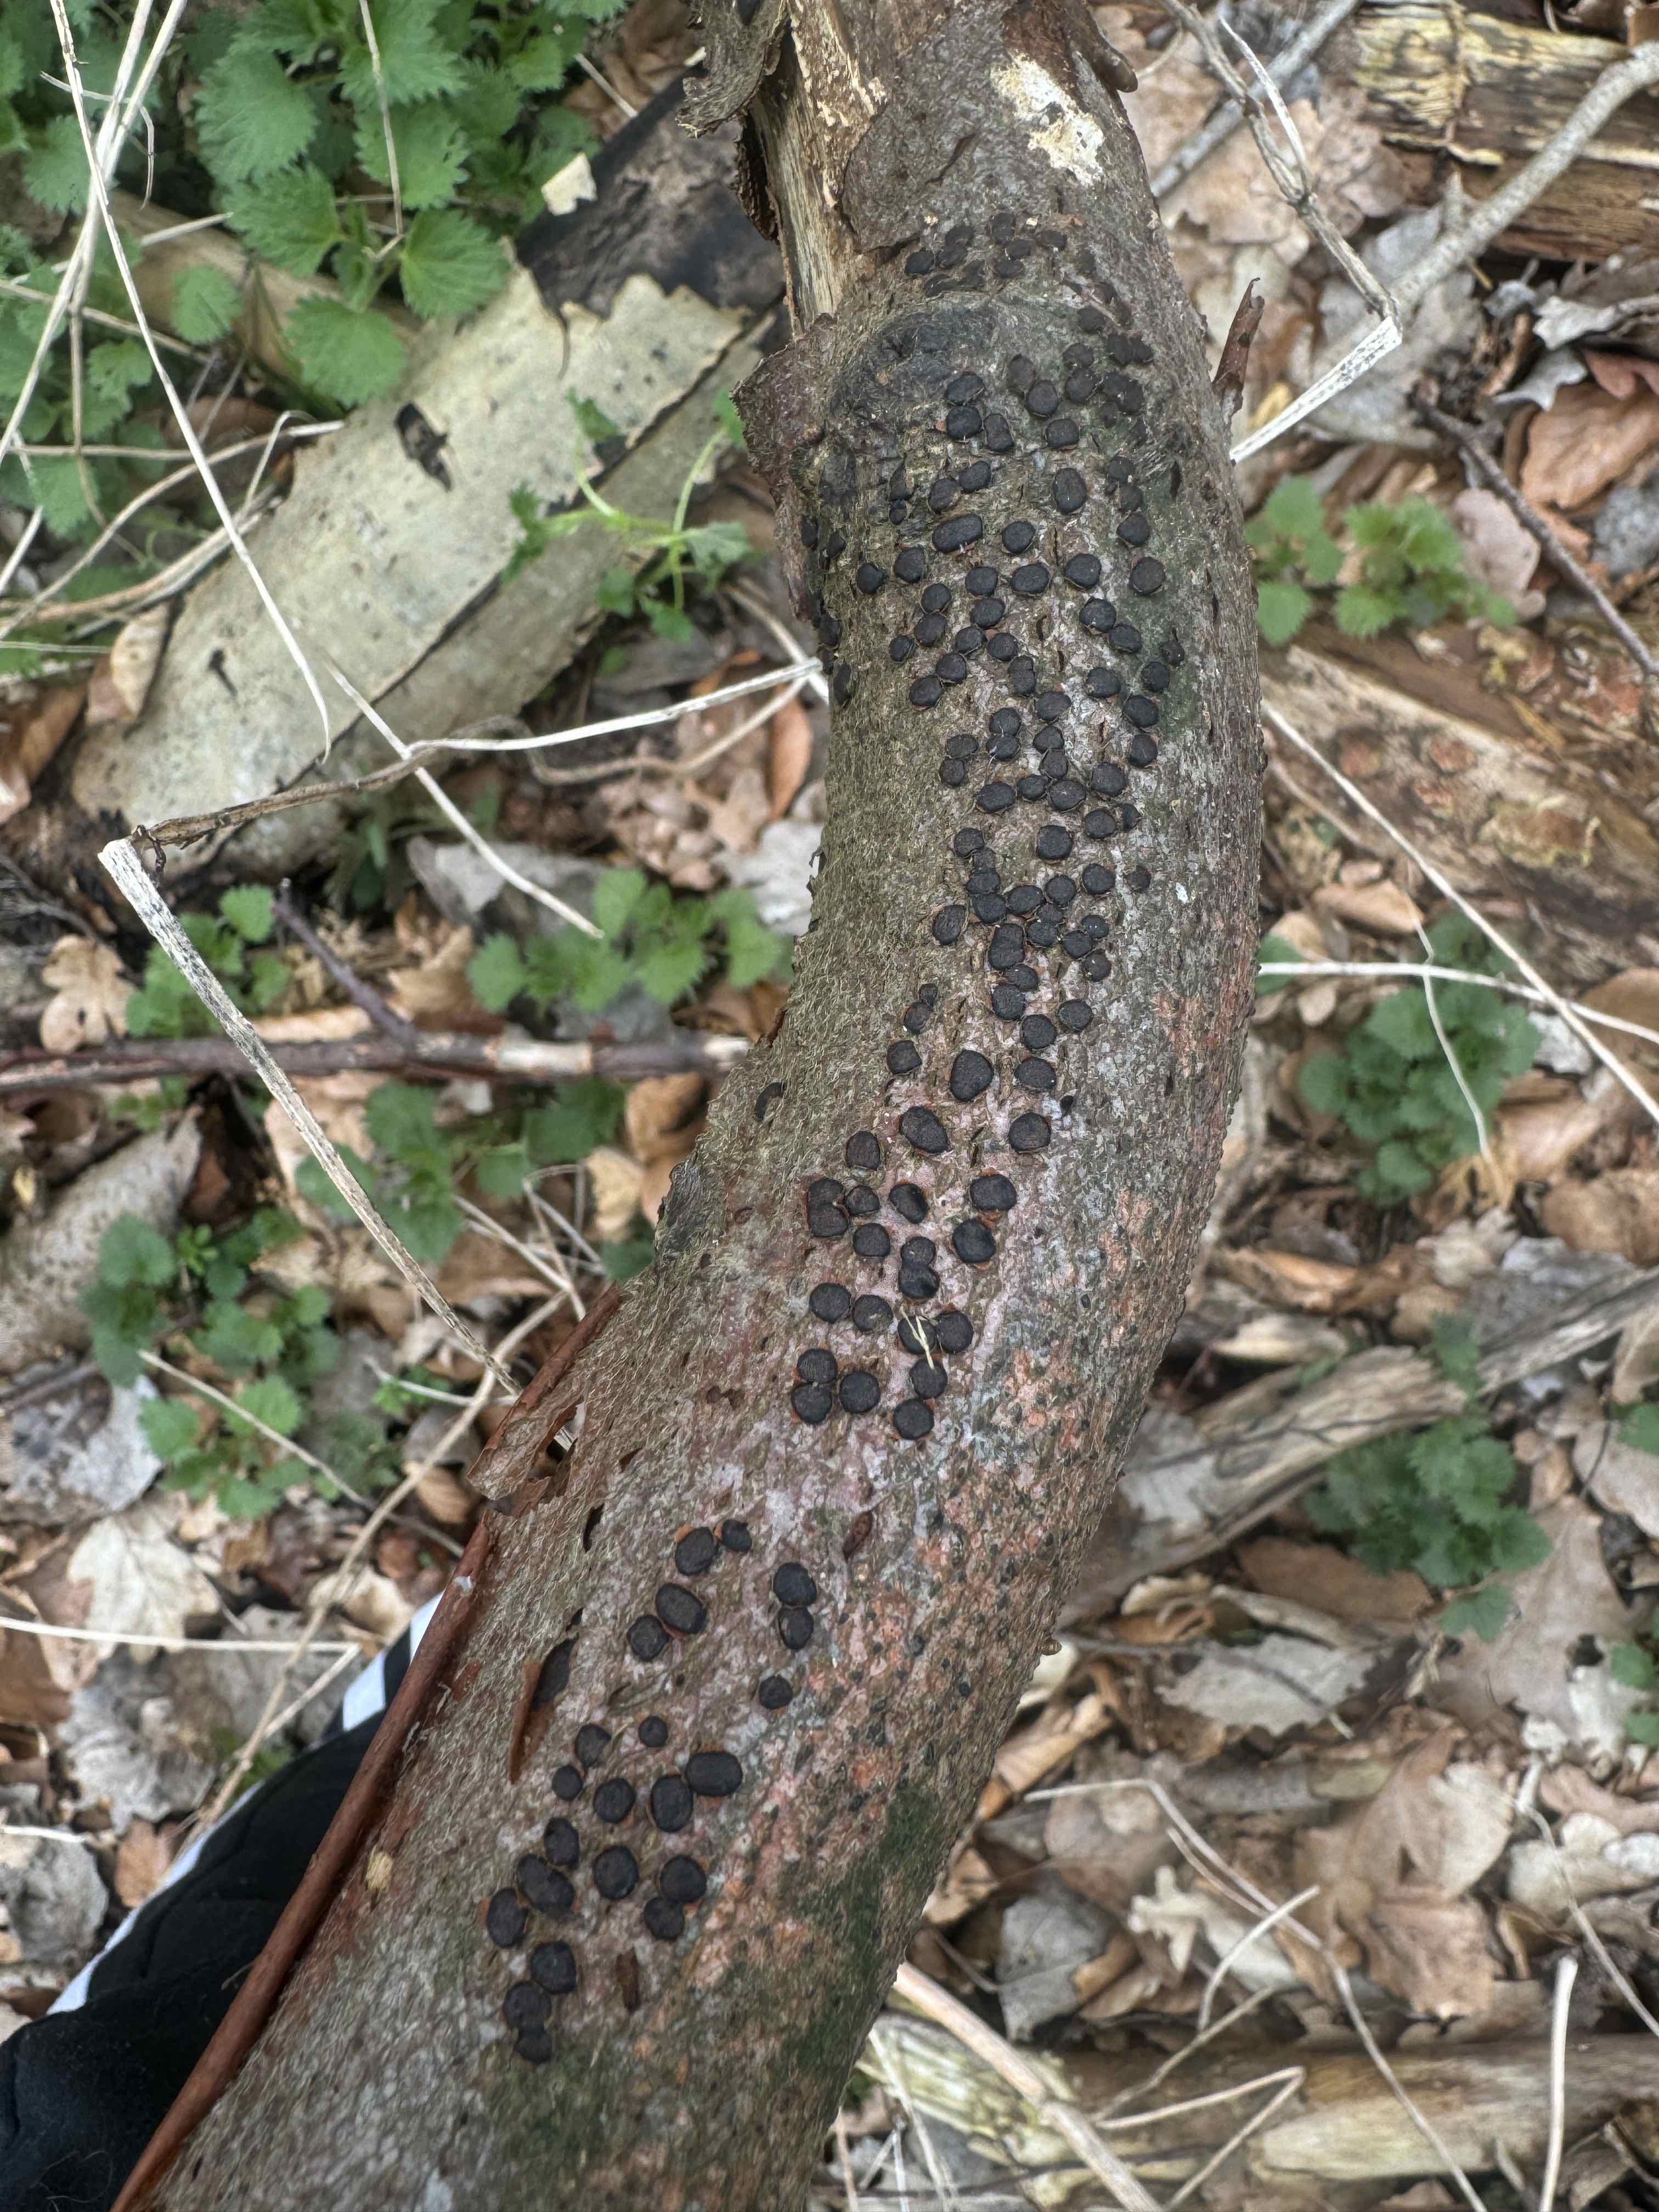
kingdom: Fungi
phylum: Ascomycota
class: Sordariomycetes
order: Xylariales
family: Diatrypaceae
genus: Diatrype
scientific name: Diatrype disciformis
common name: kant-kulskorpe
